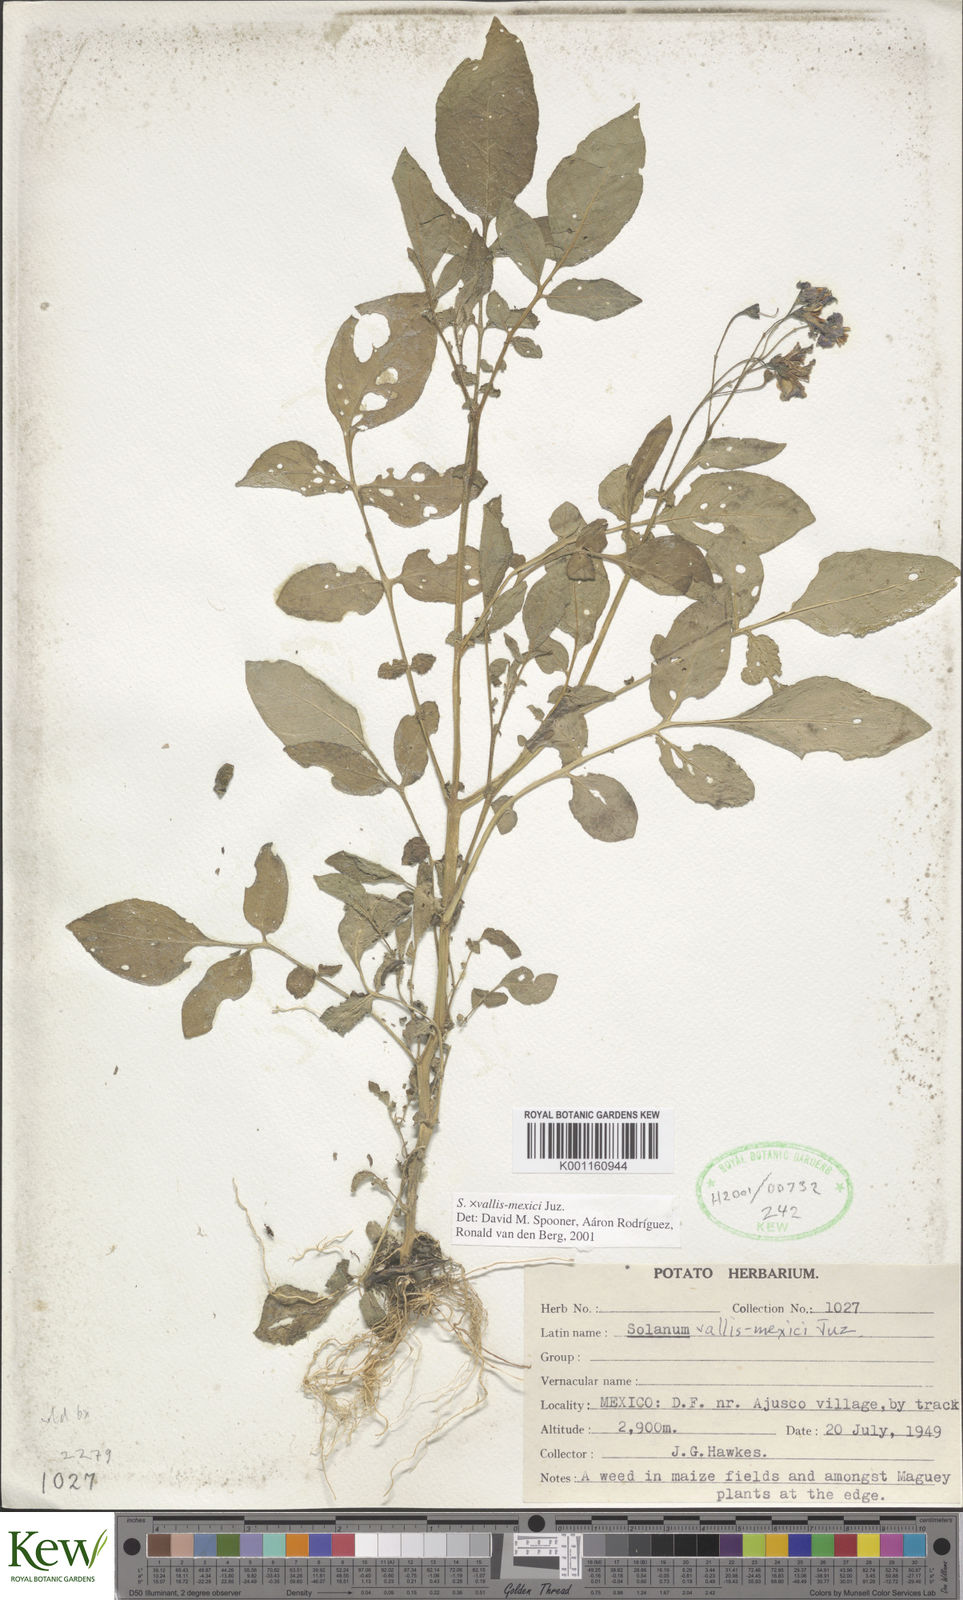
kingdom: Plantae
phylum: Tracheophyta
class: Magnoliopsida
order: Solanales
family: Solanaceae
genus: Solanum
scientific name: Solanum vallis-mexici
